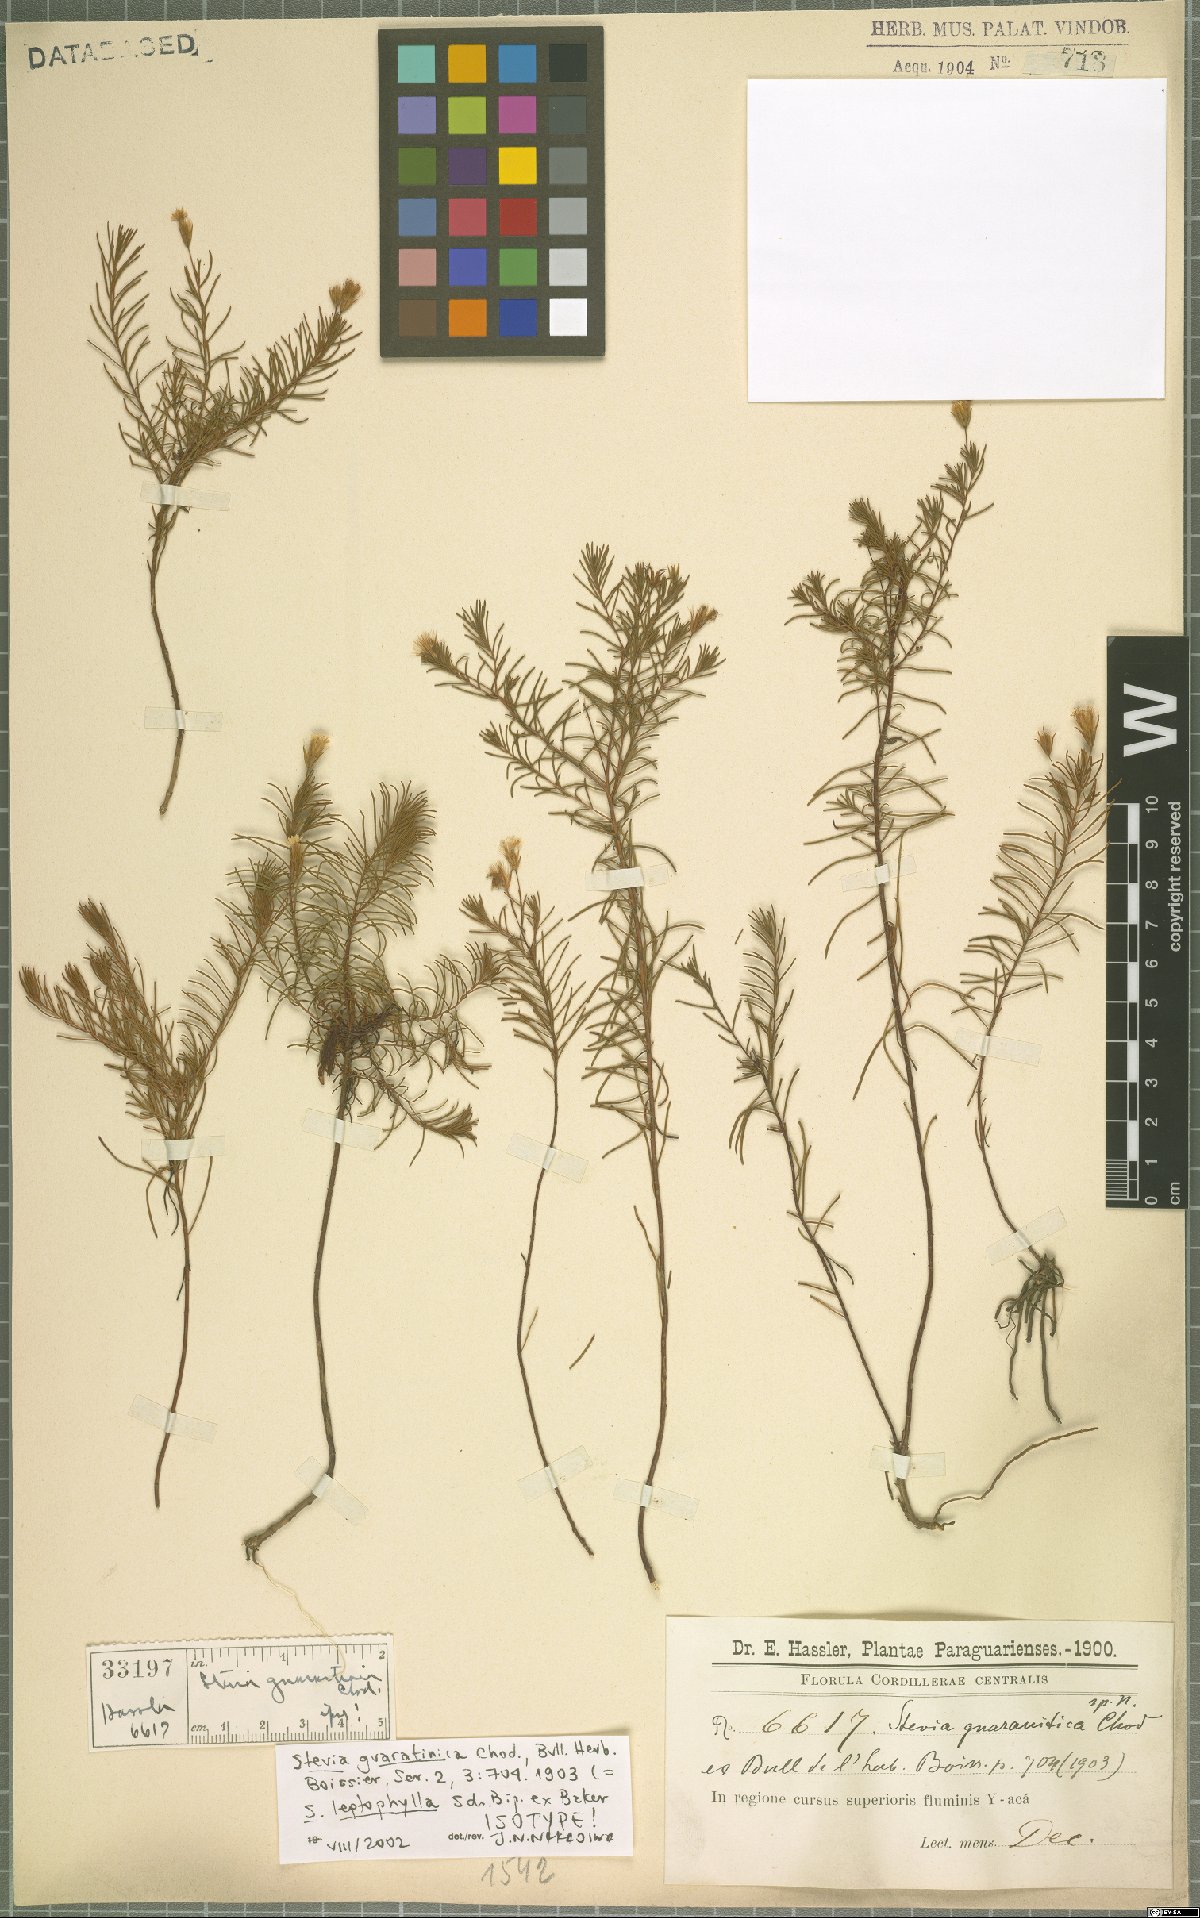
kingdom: Plantae
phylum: Tracheophyta
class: Magnoliopsida
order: Asterales
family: Asteraceae
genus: Stevia
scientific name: Stevia leptophylla
